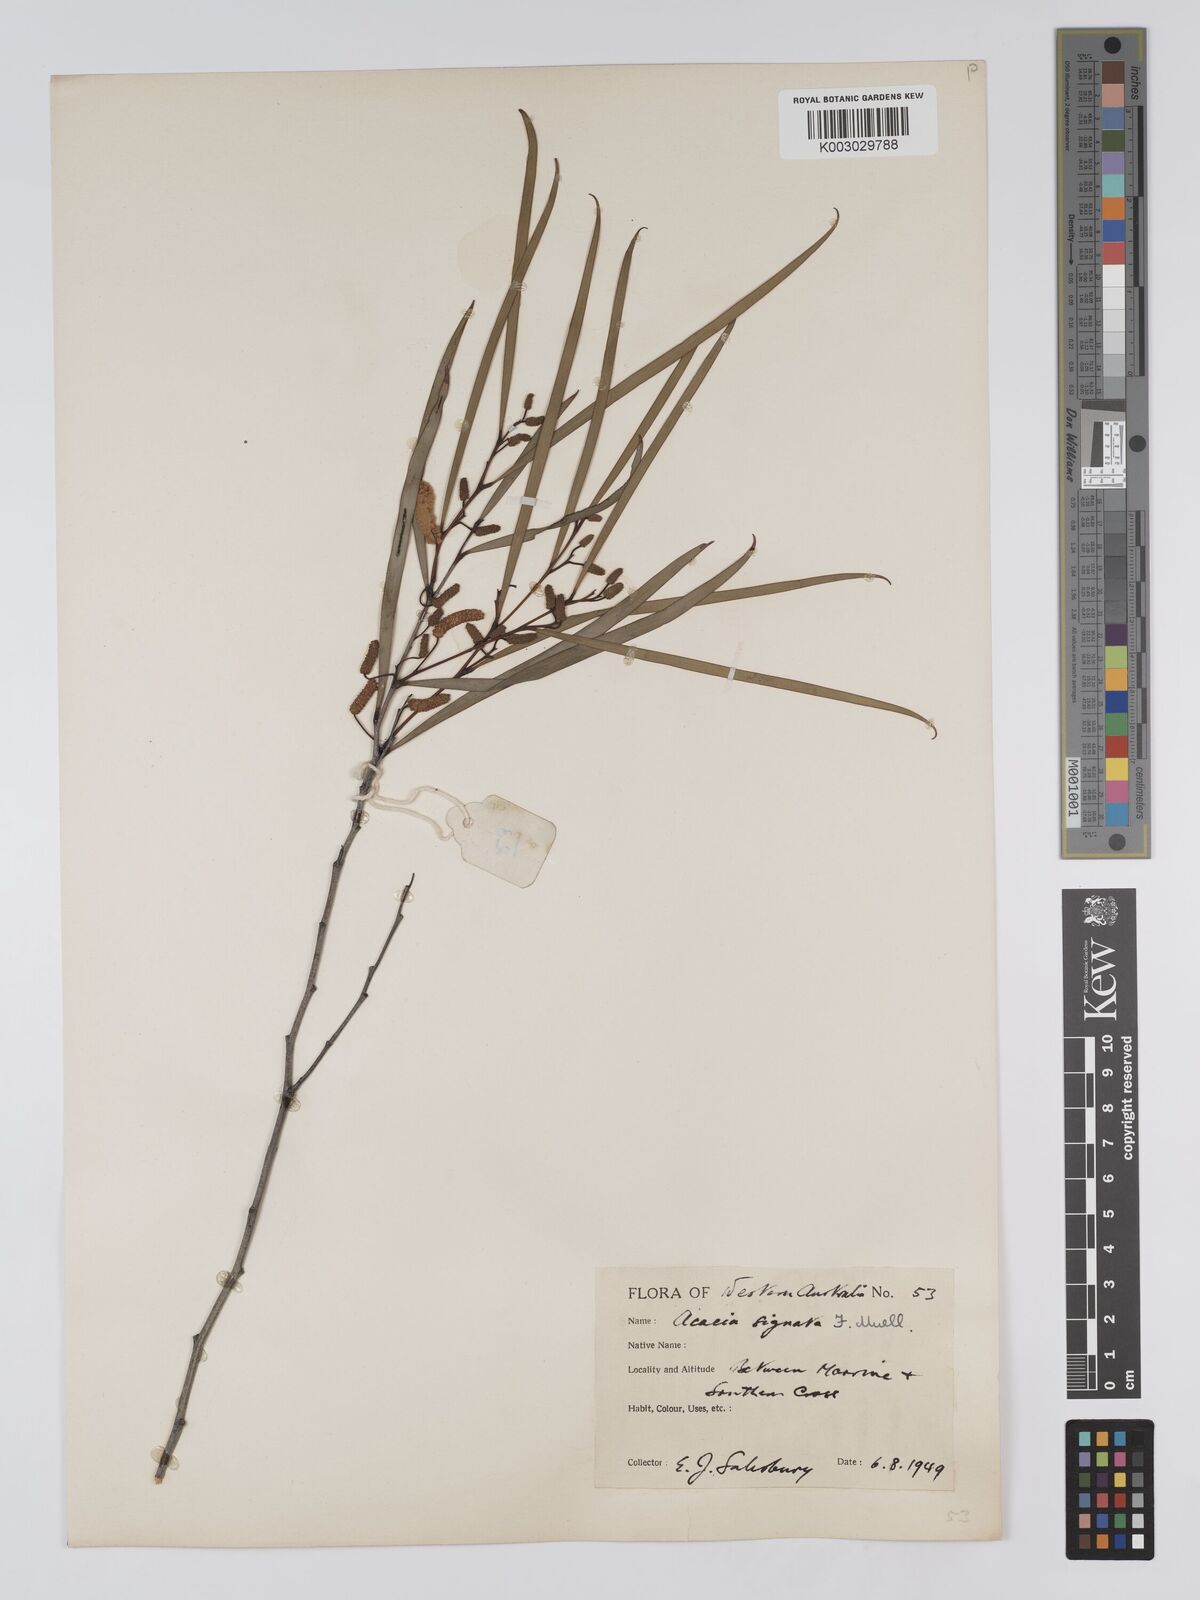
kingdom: Plantae
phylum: Tracheophyta
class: Magnoliopsida
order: Fabales
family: Fabaceae
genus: Acacia
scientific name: Acacia signata
